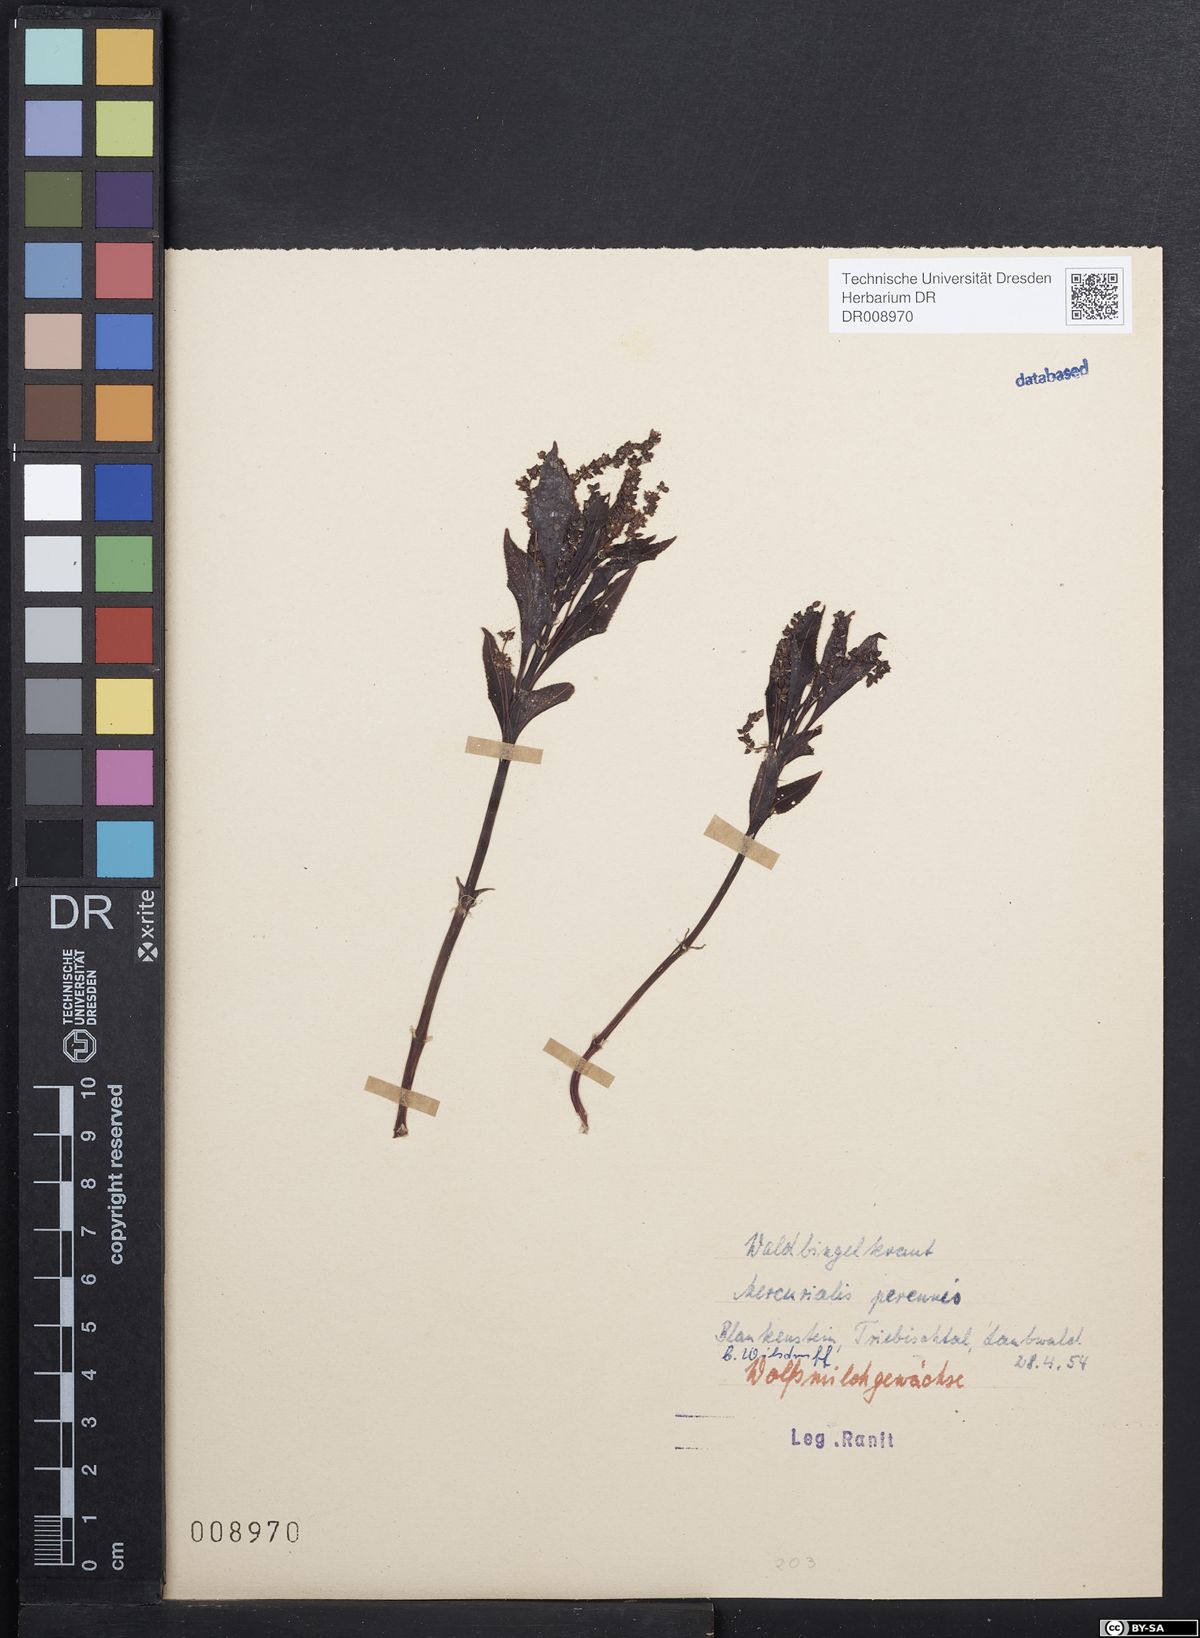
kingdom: Plantae
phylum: Tracheophyta
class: Magnoliopsida
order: Malpighiales
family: Euphorbiaceae
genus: Mercurialis
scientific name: Mercurialis perennis
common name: Dog mercury
